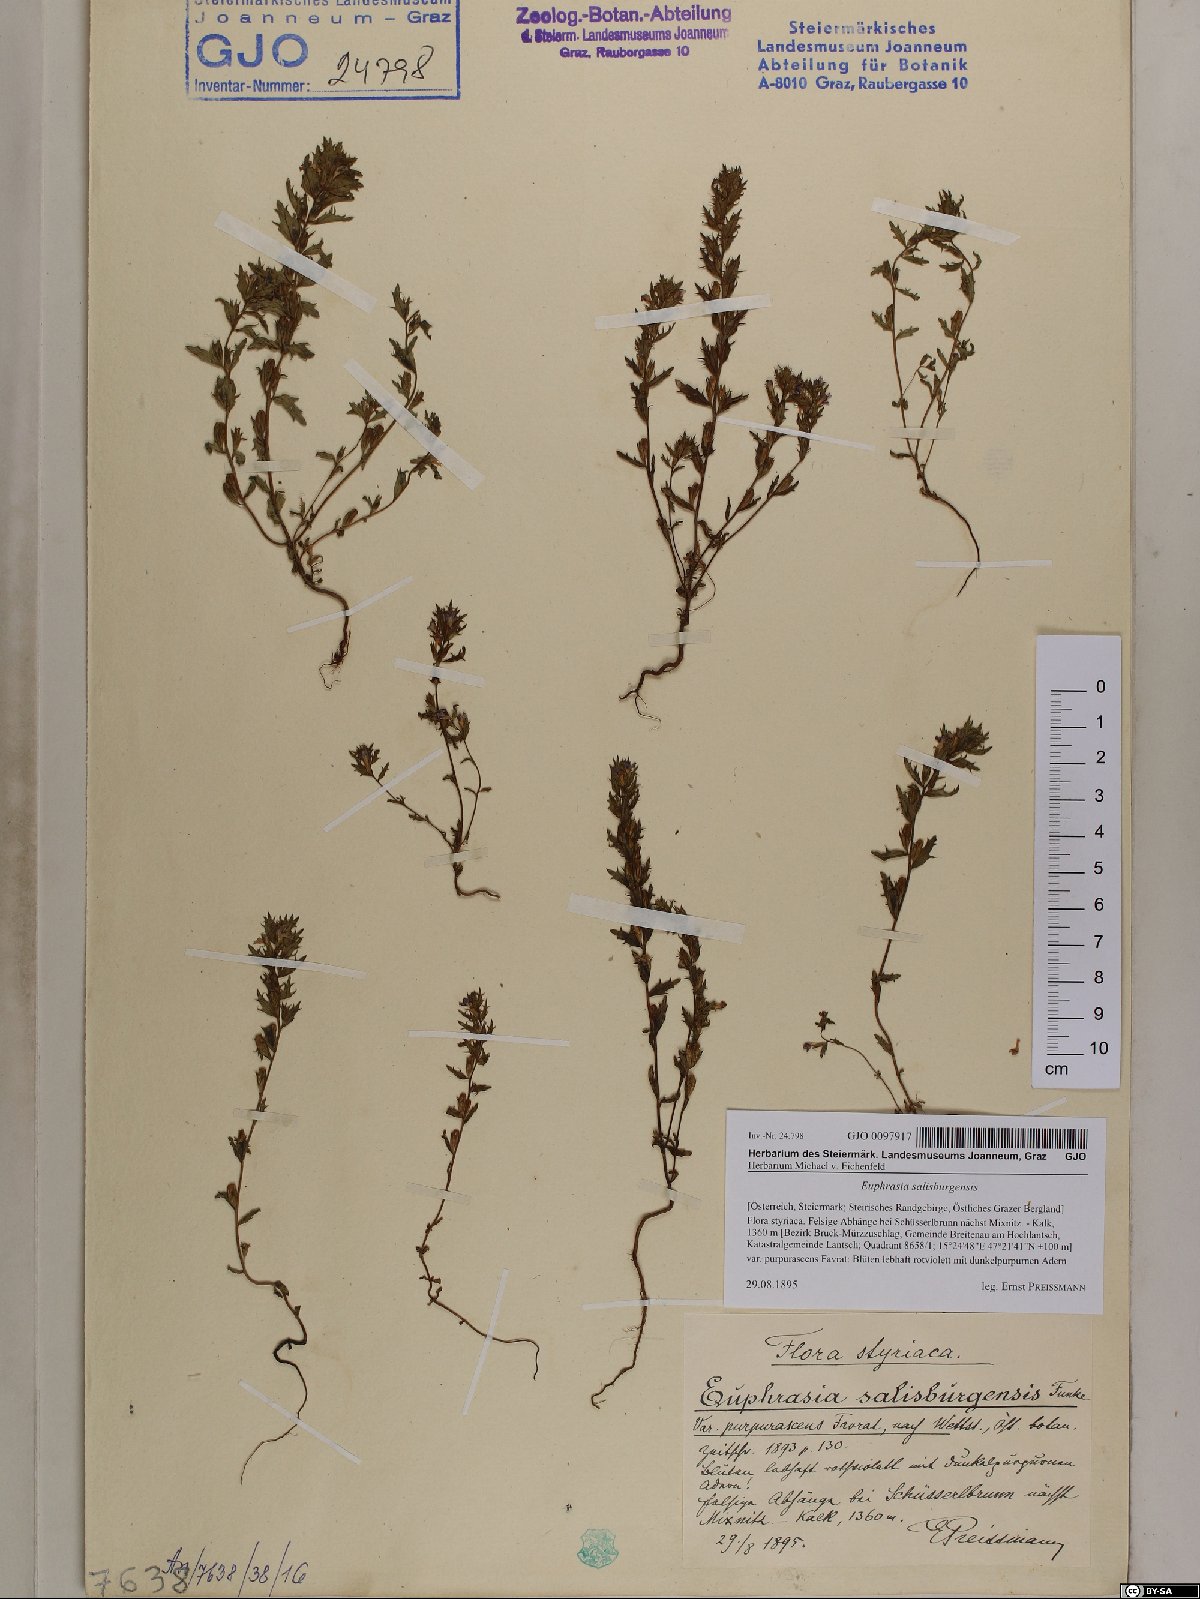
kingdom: Plantae
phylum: Tracheophyta
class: Magnoliopsida
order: Lamiales
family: Orobanchaceae
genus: Euphrasia
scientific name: Euphrasia salisburgensis
